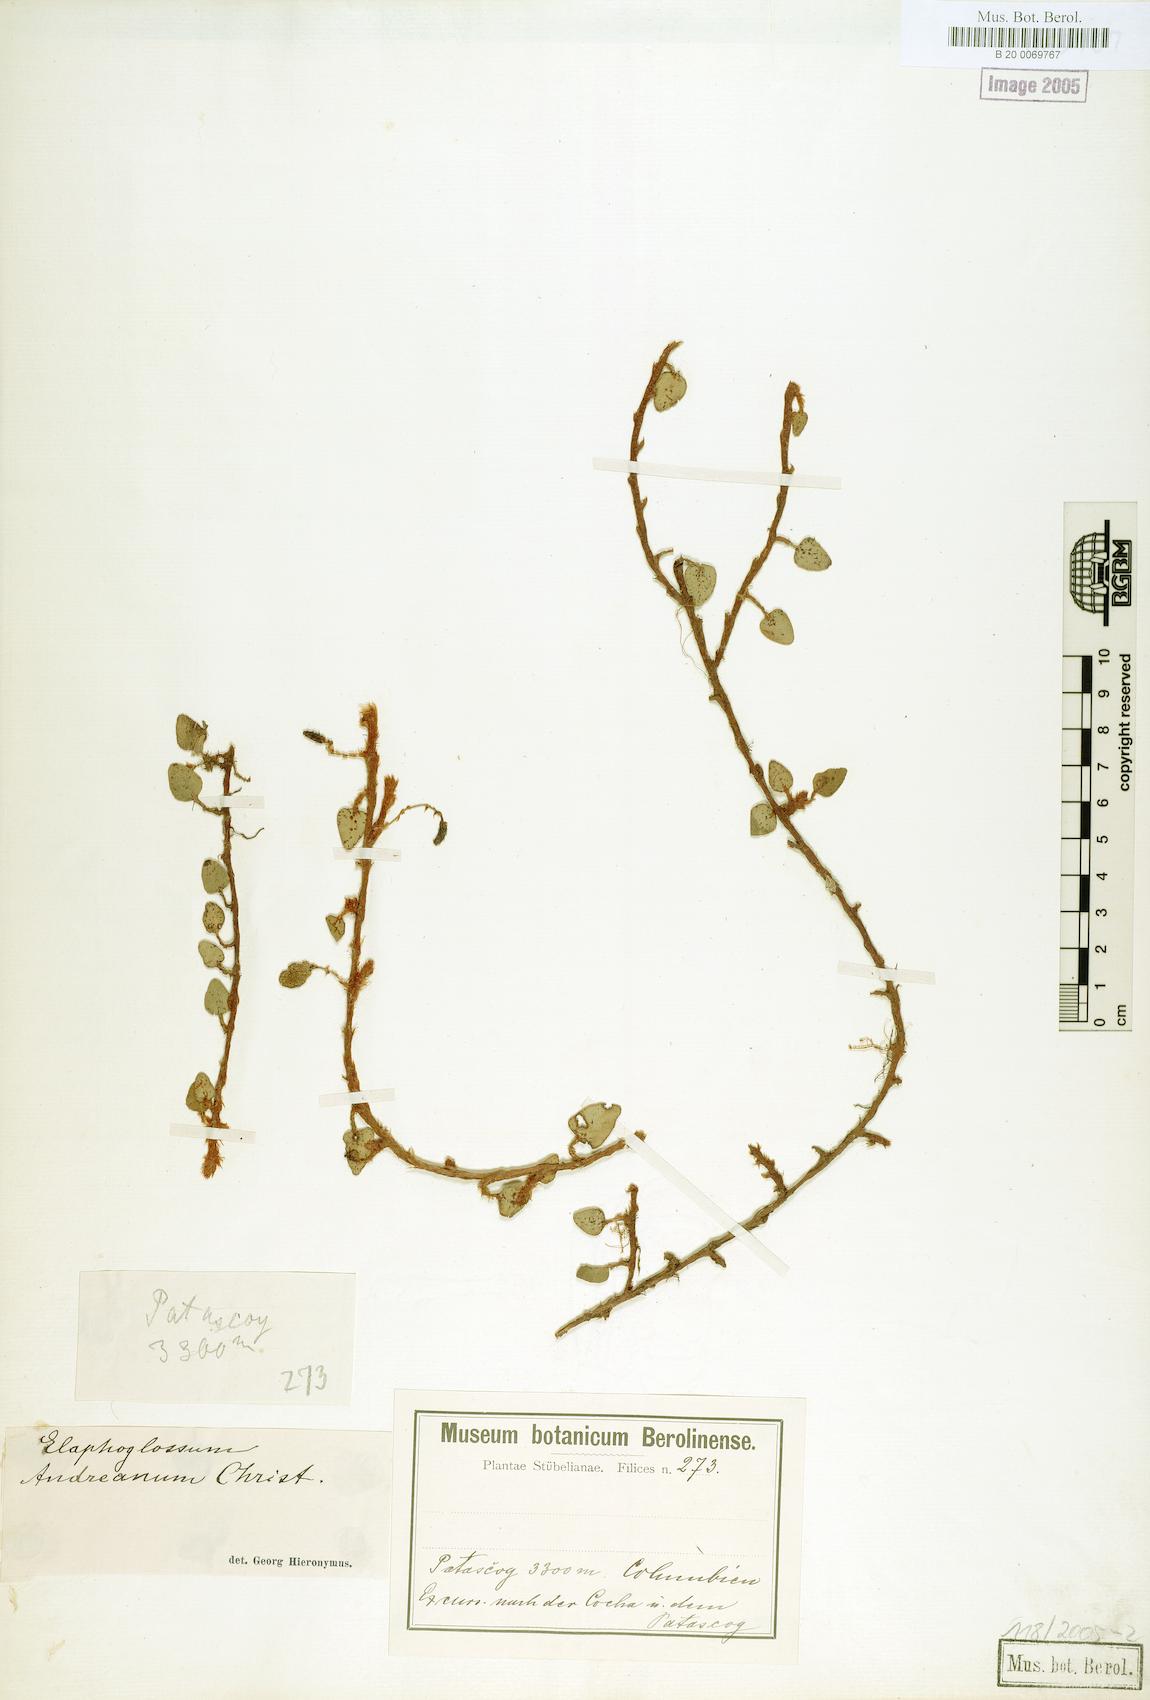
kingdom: Plantae
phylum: Tracheophyta
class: Polypodiopsida
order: Polypodiales
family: Dryopteridaceae
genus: Elaphoglossum
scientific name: Elaphoglossum andreanum
